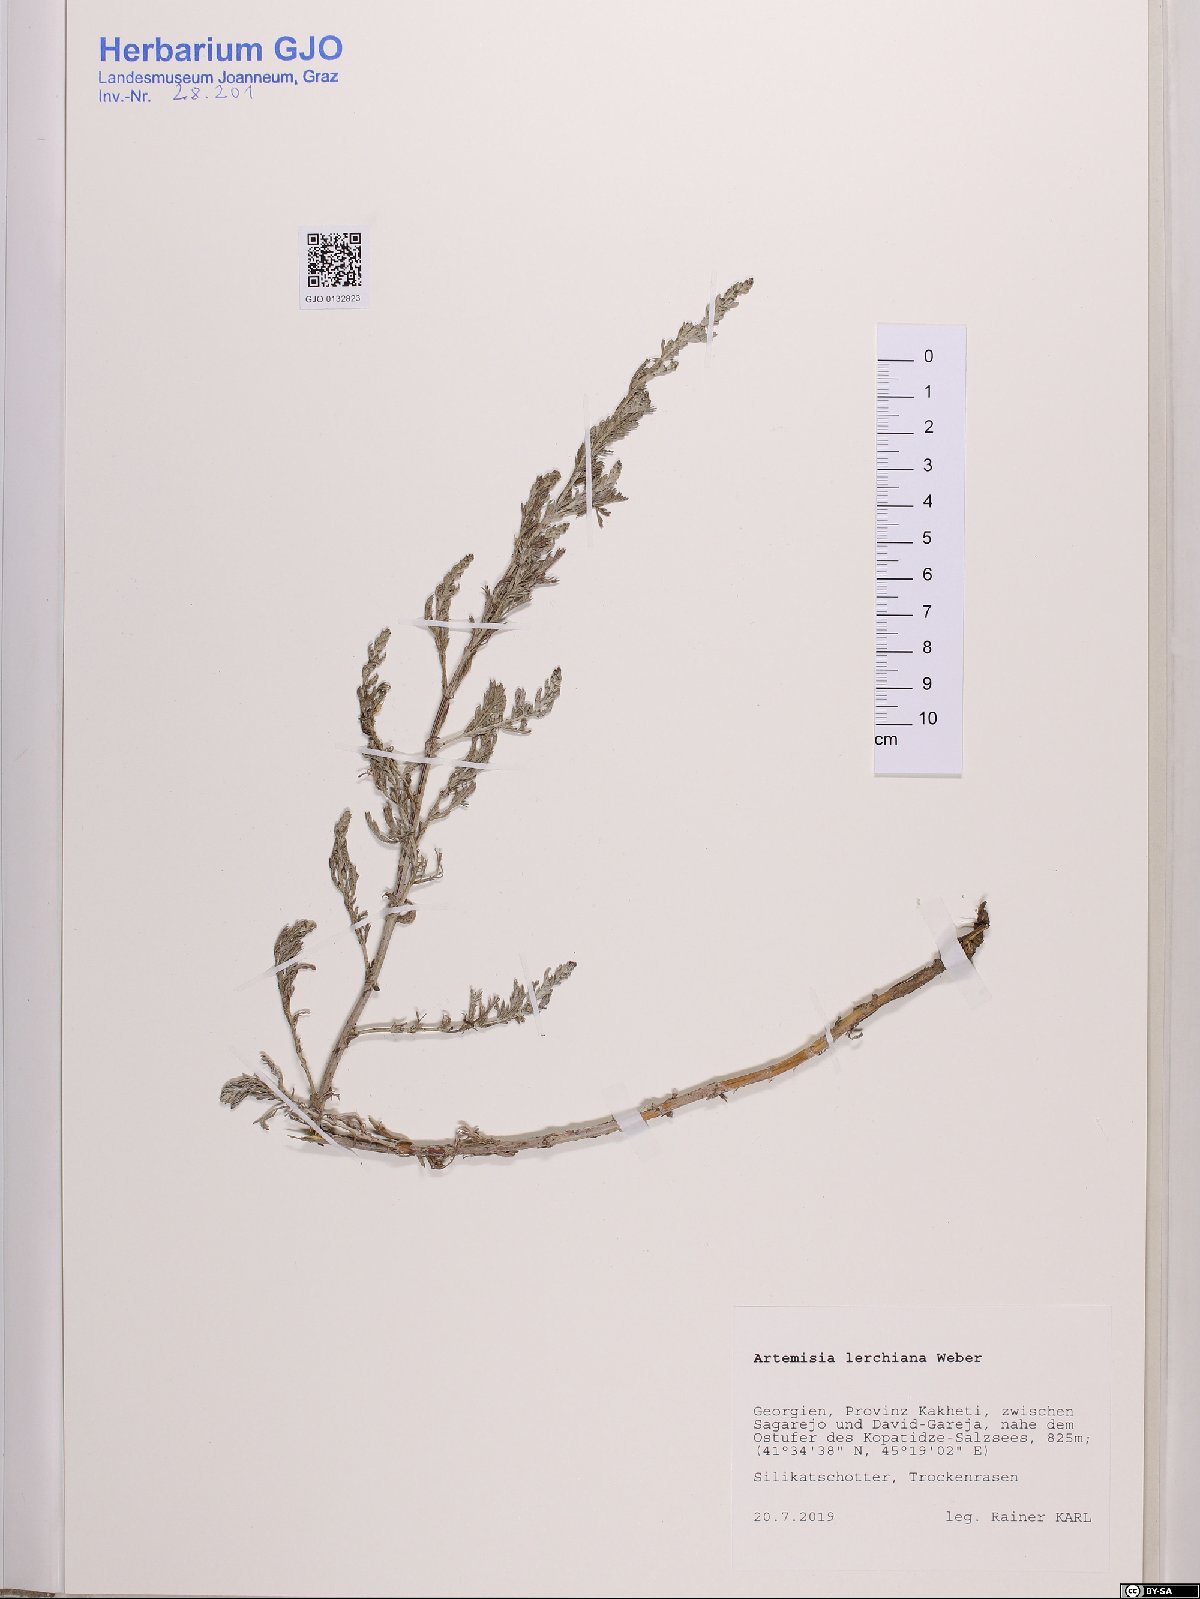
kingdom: Plantae
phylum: Tracheophyta
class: Magnoliopsida
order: Asterales
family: Asteraceae
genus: Artemisia
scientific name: Artemisia lercheana
